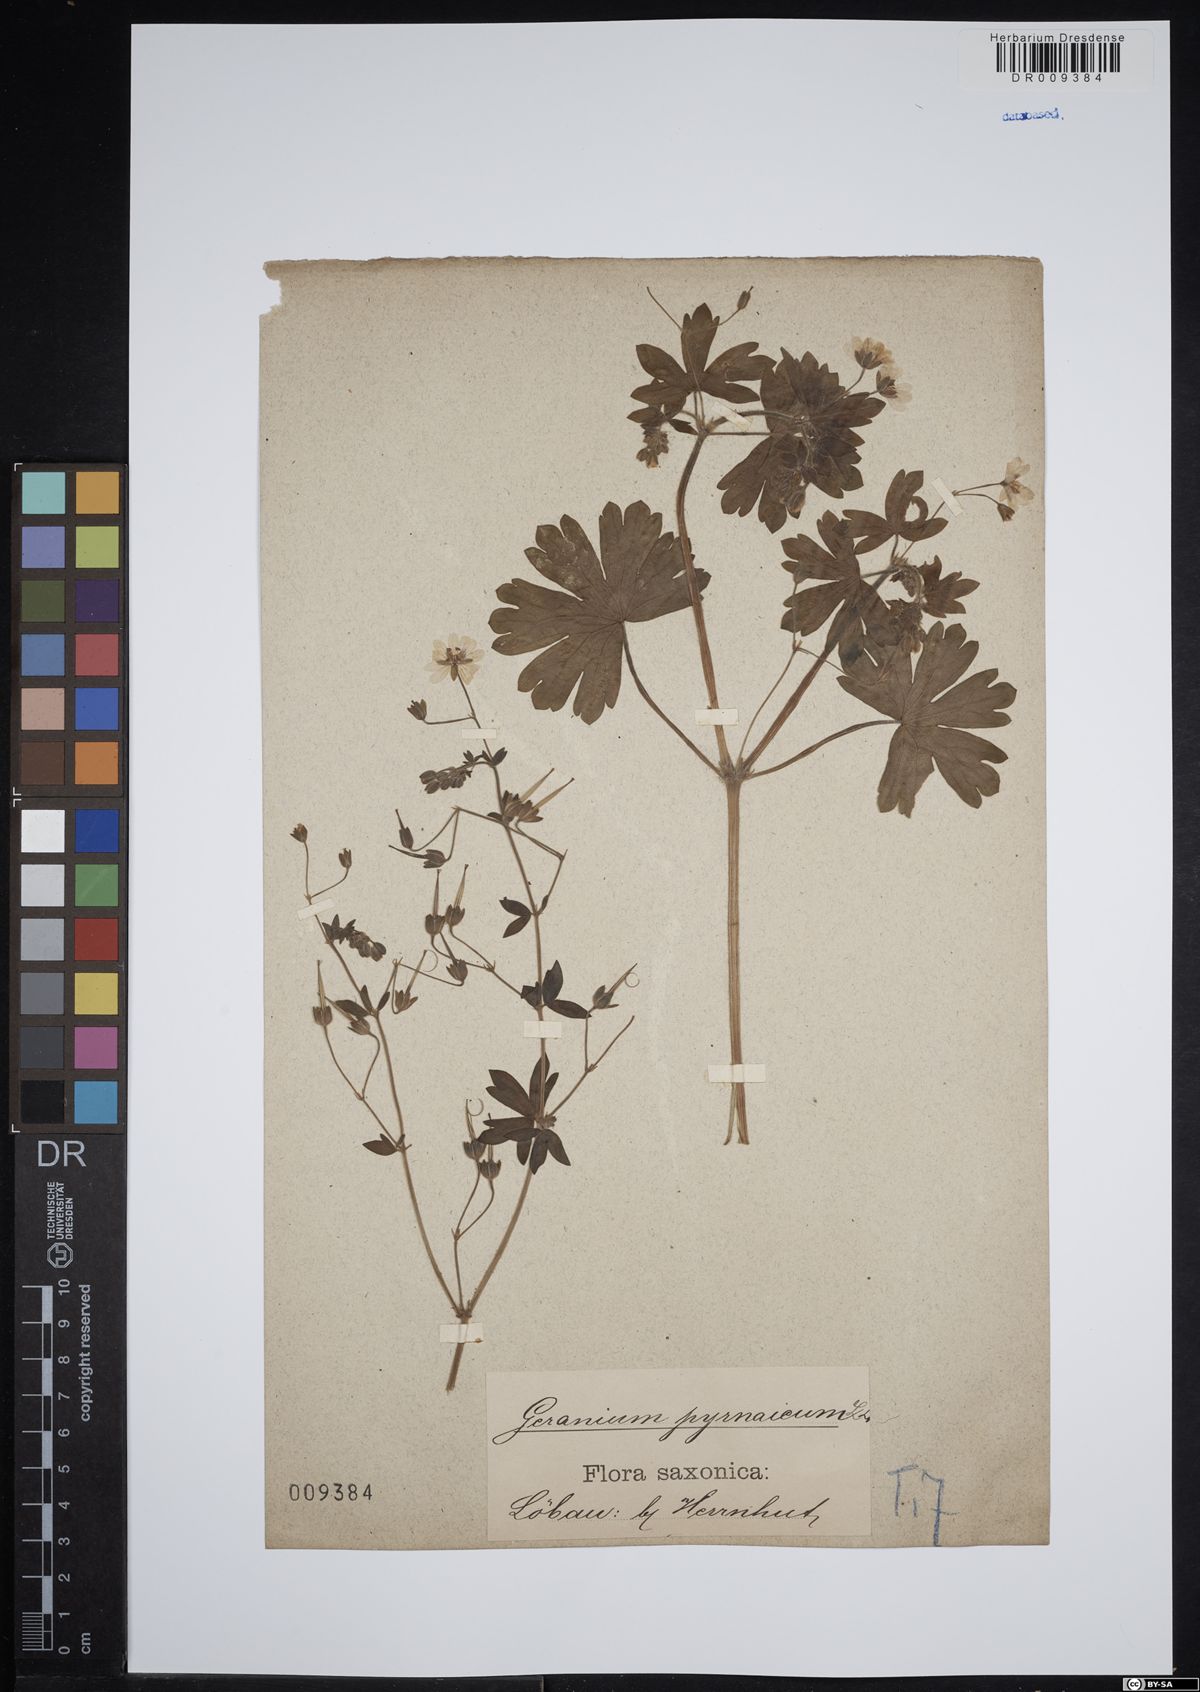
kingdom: Plantae
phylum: Tracheophyta
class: Magnoliopsida
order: Geraniales
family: Geraniaceae
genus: Geranium
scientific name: Geranium pyrenaicum
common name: Hedgerow crane's-bill
